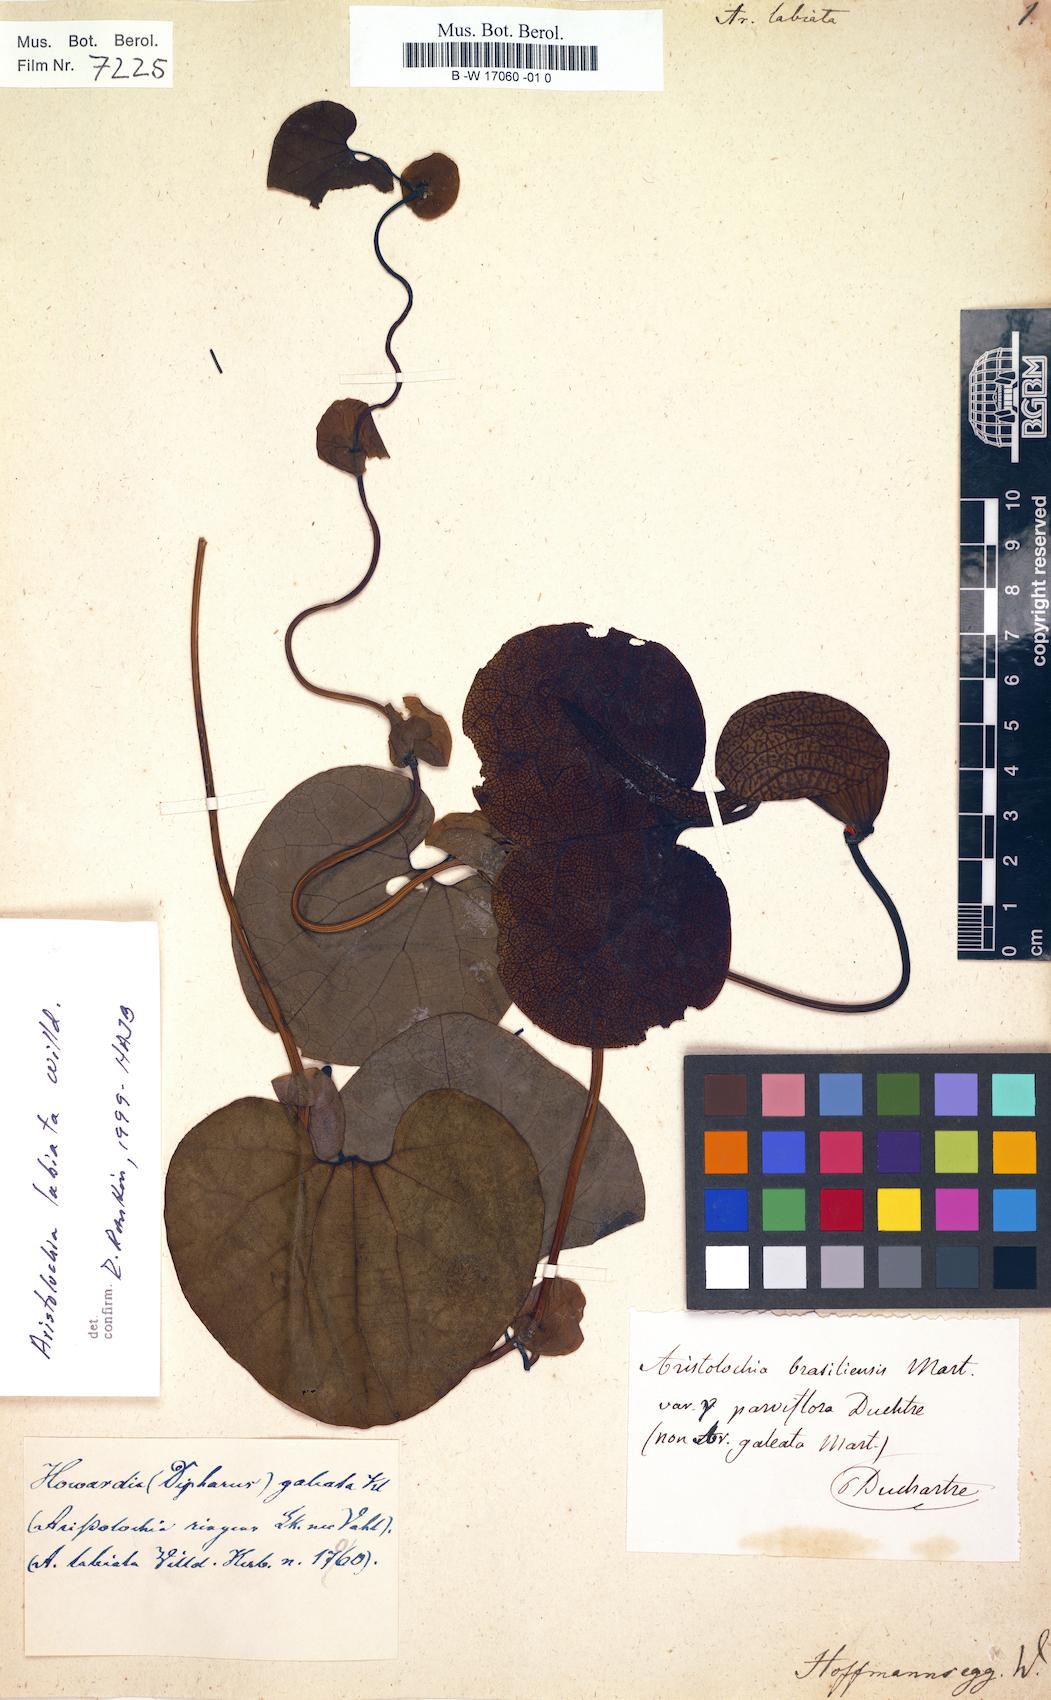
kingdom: Plantae
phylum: Tracheophyta
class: Magnoliopsida
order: Piperales
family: Aristolochiaceae
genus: Aristolochia
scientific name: Aristolochia labiata
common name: Mottled dutchman's pipe
